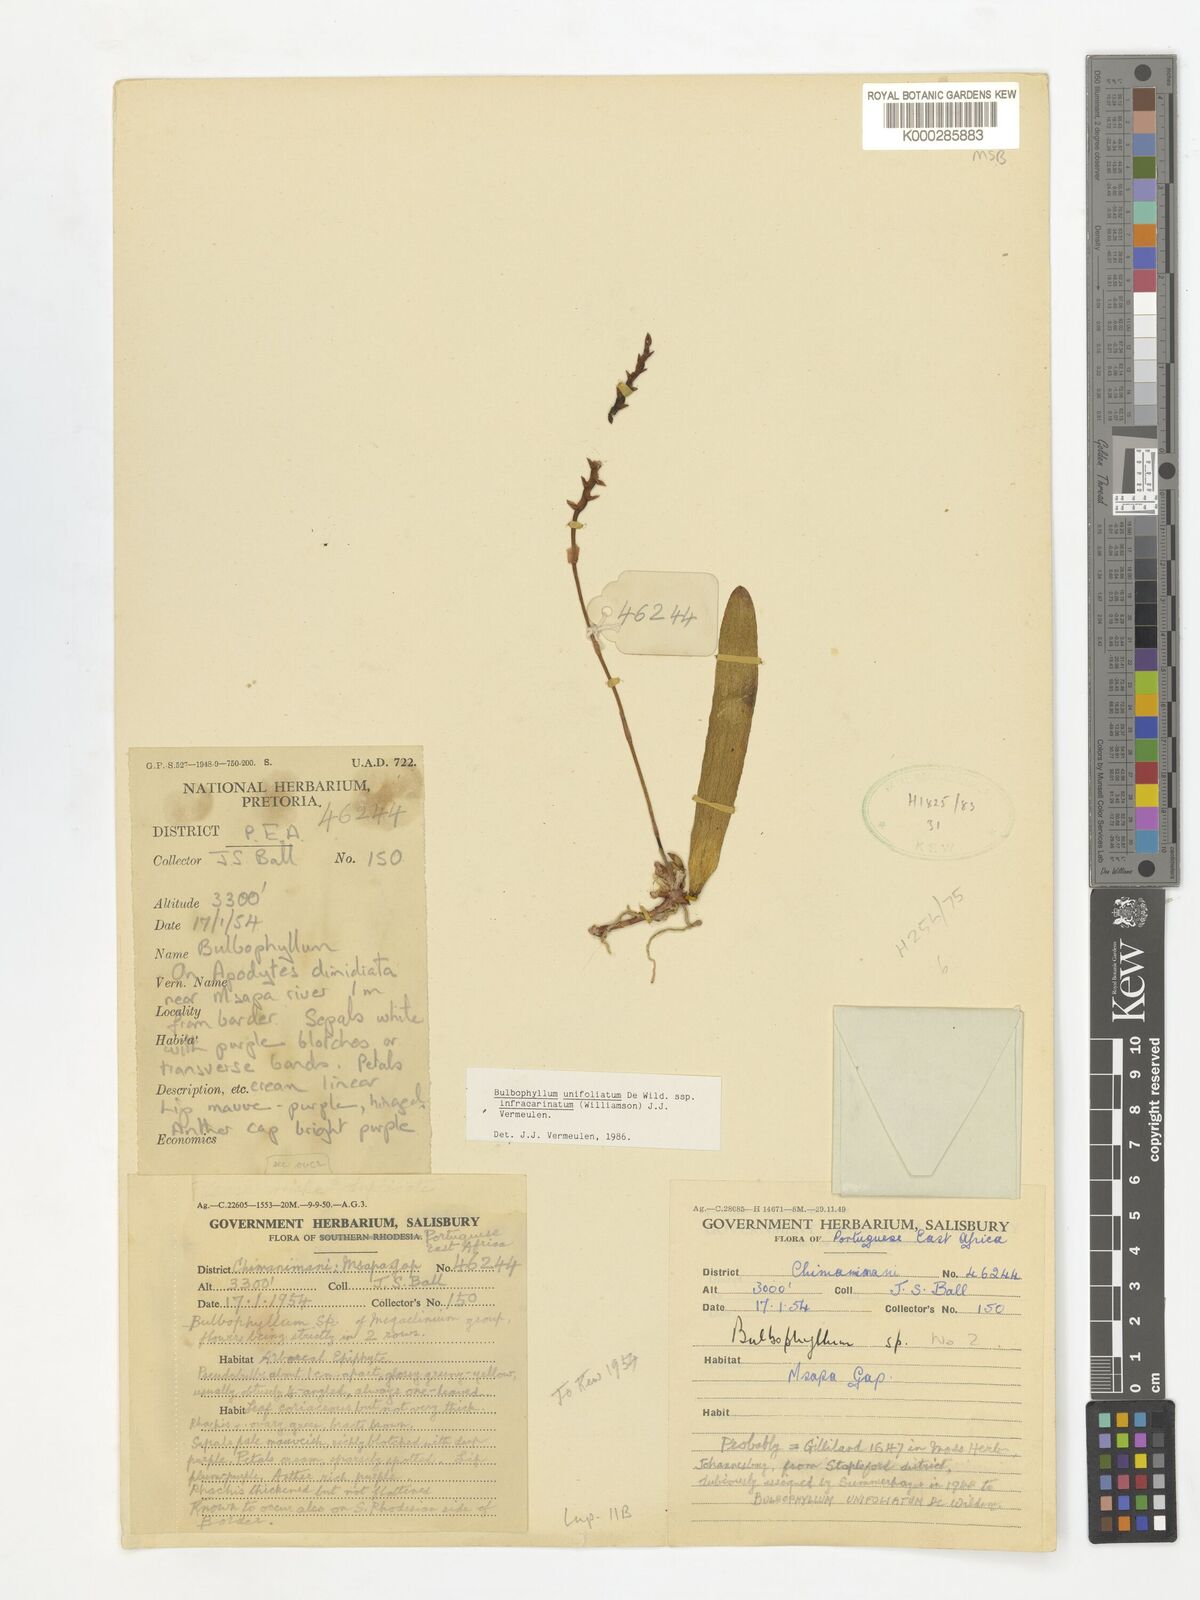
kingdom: Plantae
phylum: Tracheophyta
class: Liliopsida
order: Asparagales
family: Orchidaceae
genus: Bulbophyllum
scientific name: Bulbophyllum unifoliatum
